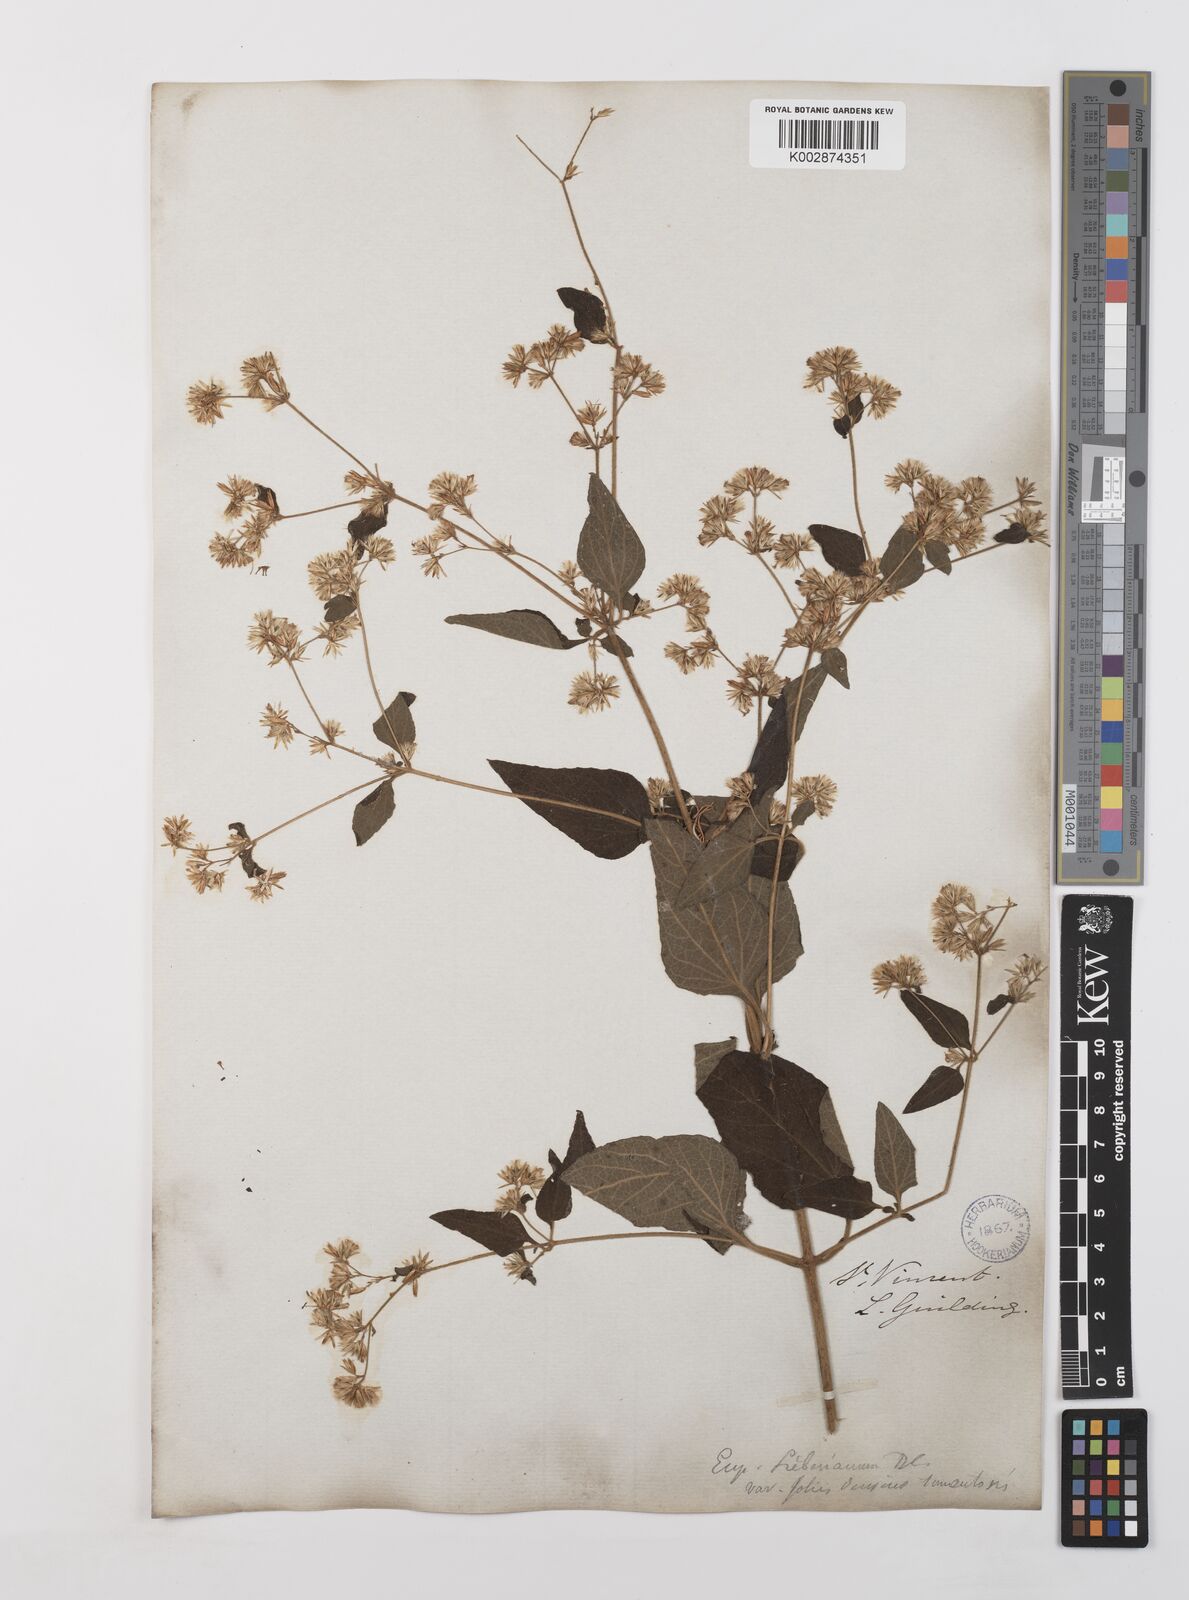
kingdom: Plantae
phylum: Tracheophyta
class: Magnoliopsida
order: Asterales
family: Asteraceae
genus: Condylidium
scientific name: Condylidium iresinoides
